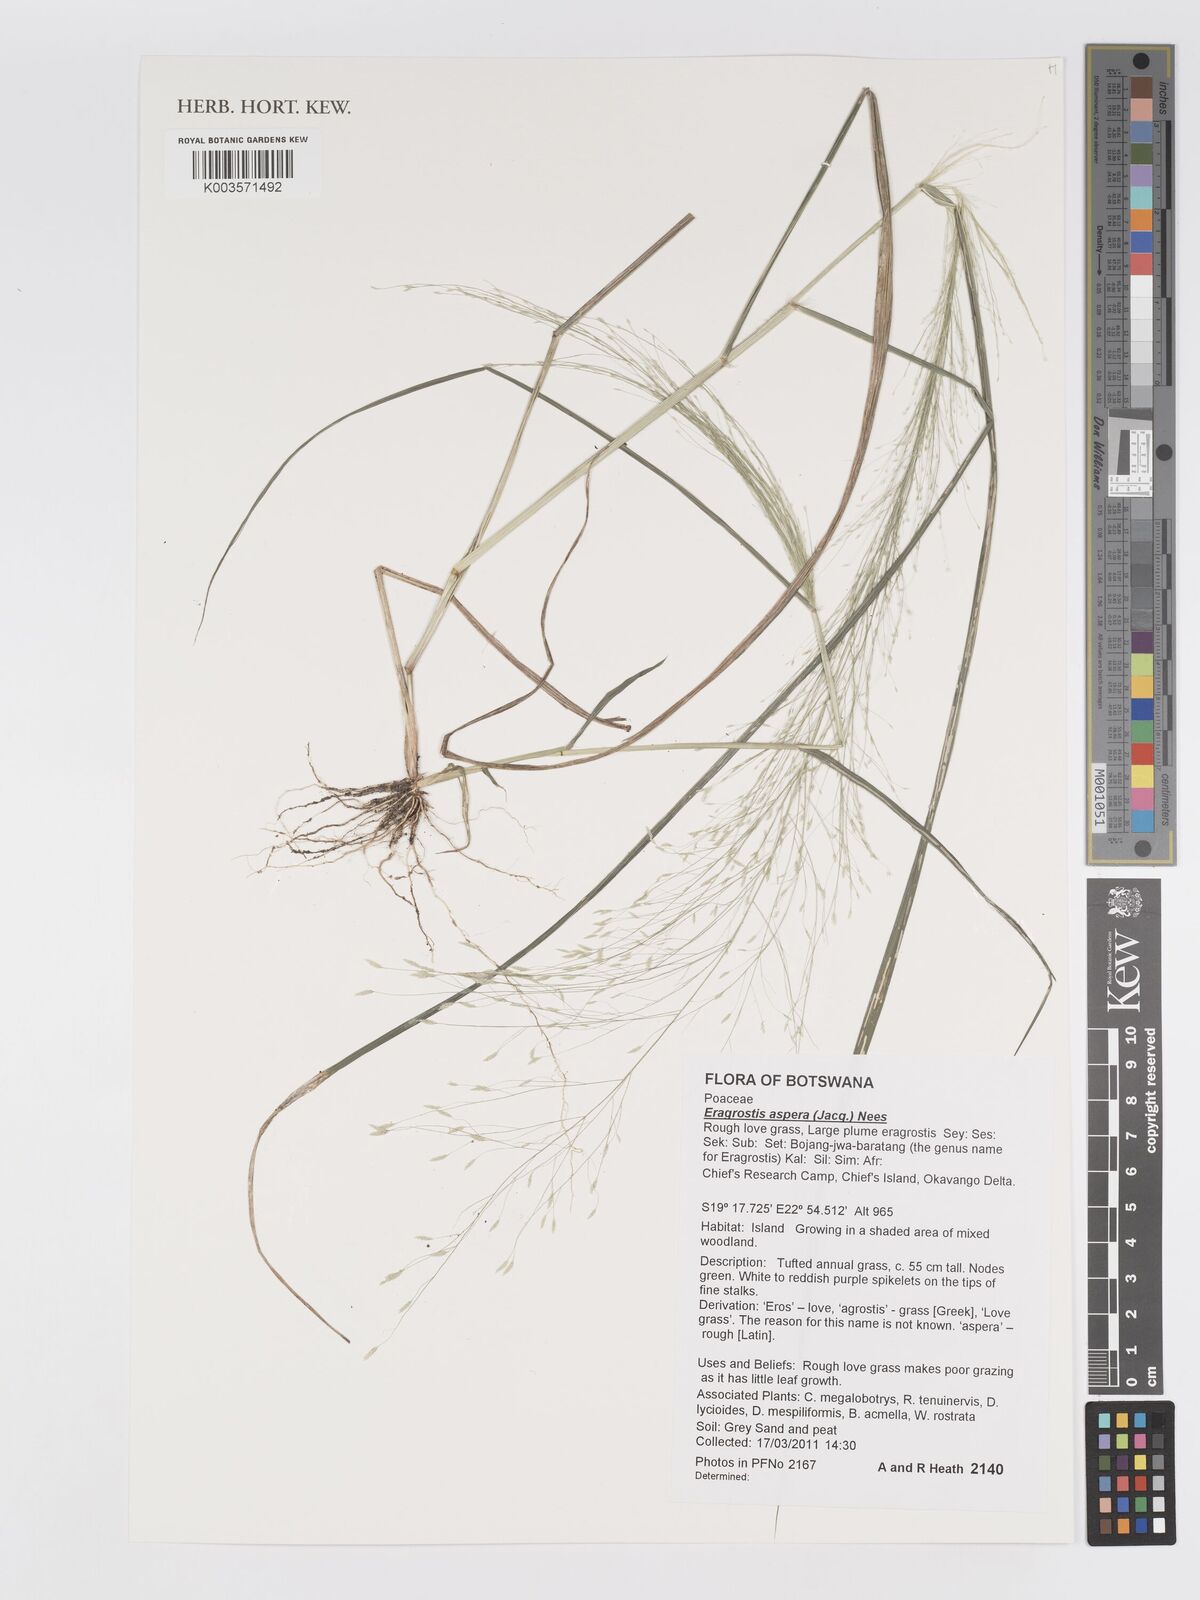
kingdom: Plantae
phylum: Tracheophyta
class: Liliopsida
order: Poales
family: Poaceae
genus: Eragrostis
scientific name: Eragrostis aspera
